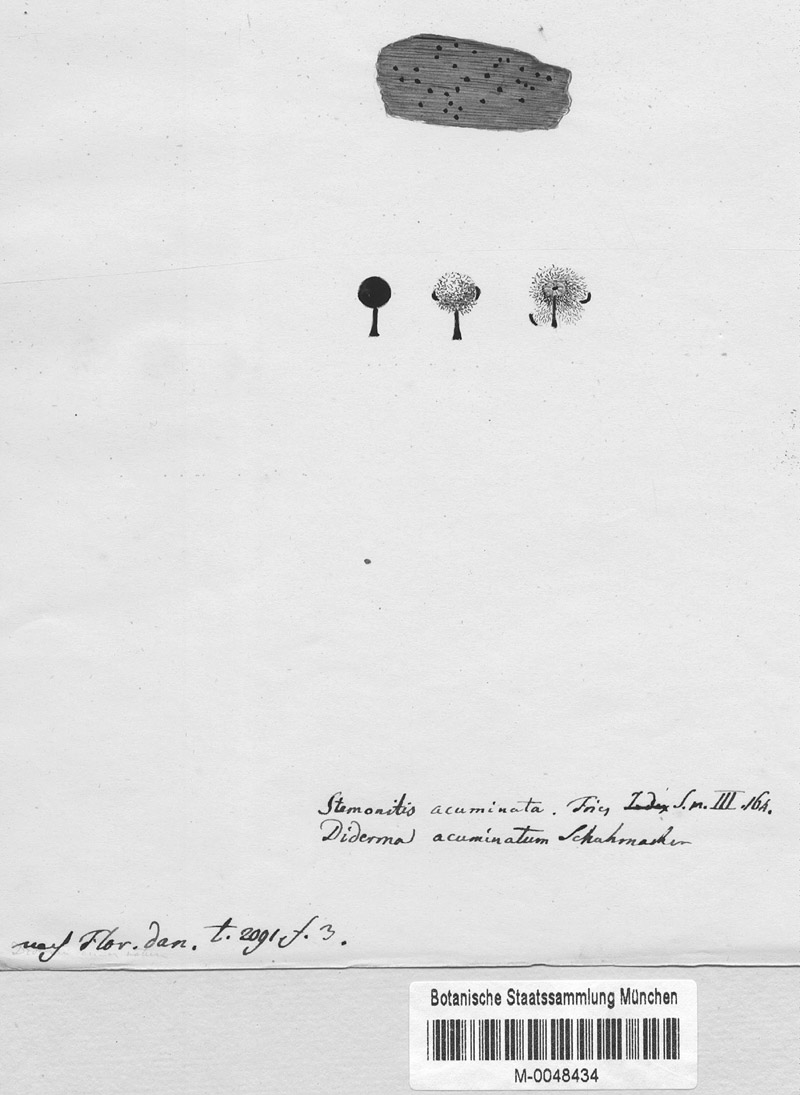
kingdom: Protozoa
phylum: Mycetozoa
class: Myxomycetes
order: Physarales
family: Didymiaceae
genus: Diderma
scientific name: Diderma
